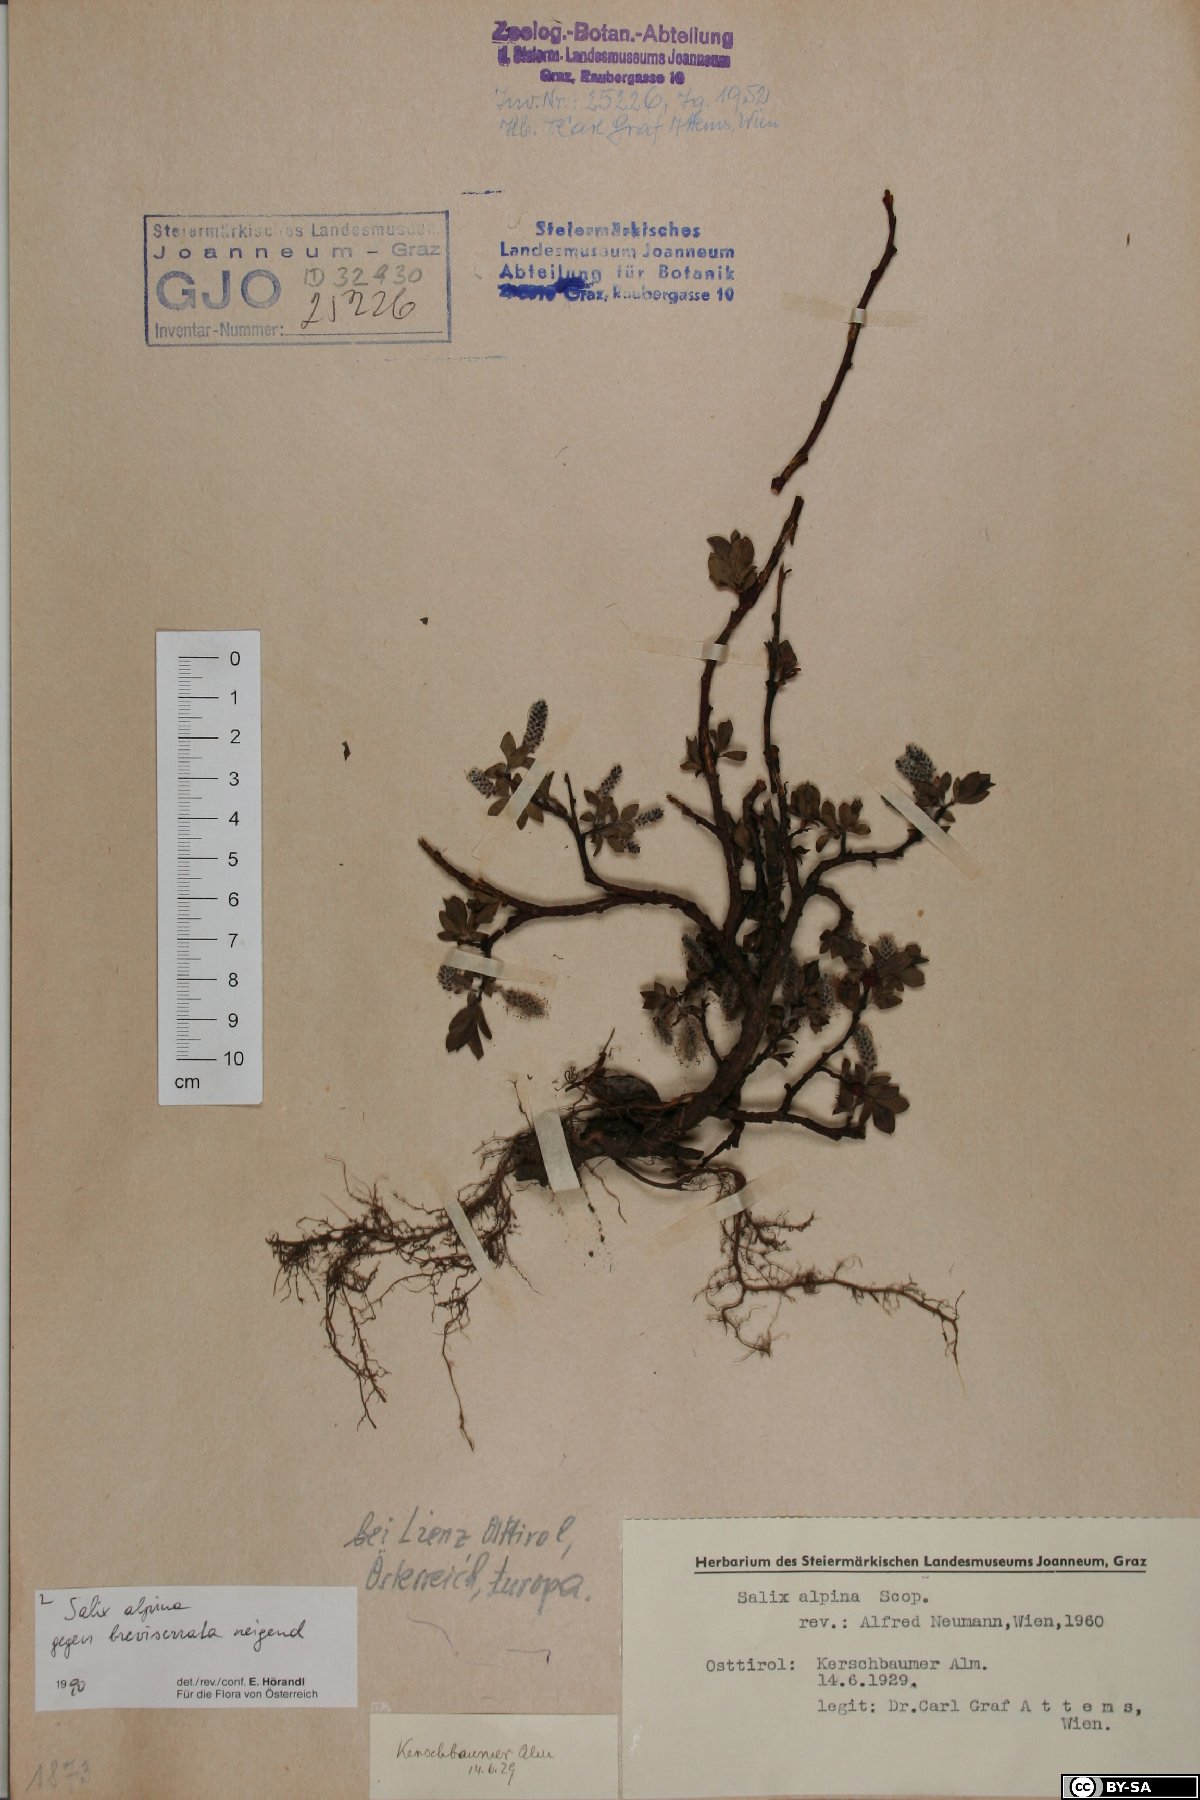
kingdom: Plantae
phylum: Tracheophyta
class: Magnoliopsida
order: Malpighiales
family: Salicaceae
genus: Salix
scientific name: Salix alpina
